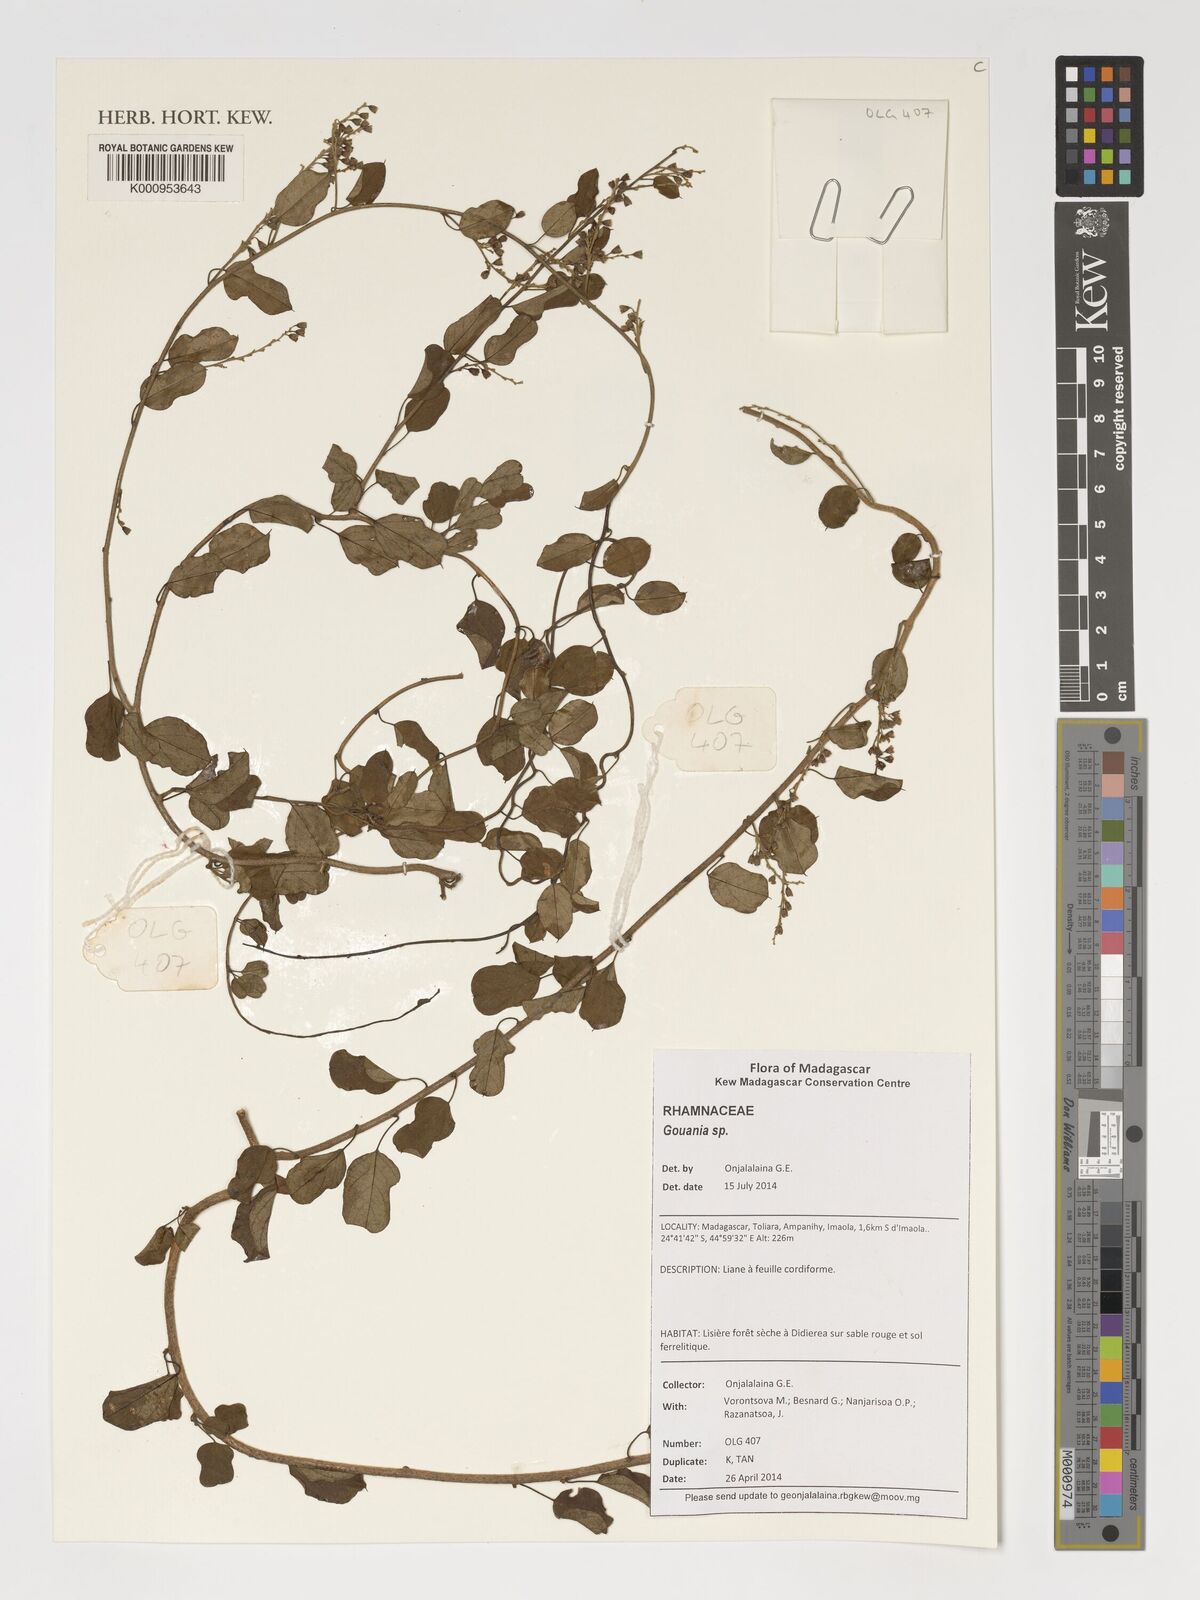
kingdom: Plantae
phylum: Tracheophyta
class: Magnoliopsida
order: Rosales
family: Rhamnaceae
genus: Gouania
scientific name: Gouania
